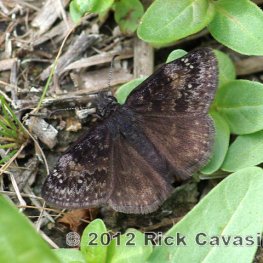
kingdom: Animalia
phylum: Arthropoda
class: Insecta
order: Lepidoptera
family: Hesperiidae
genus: Gesta
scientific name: Gesta
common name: Columbine Duskywing
